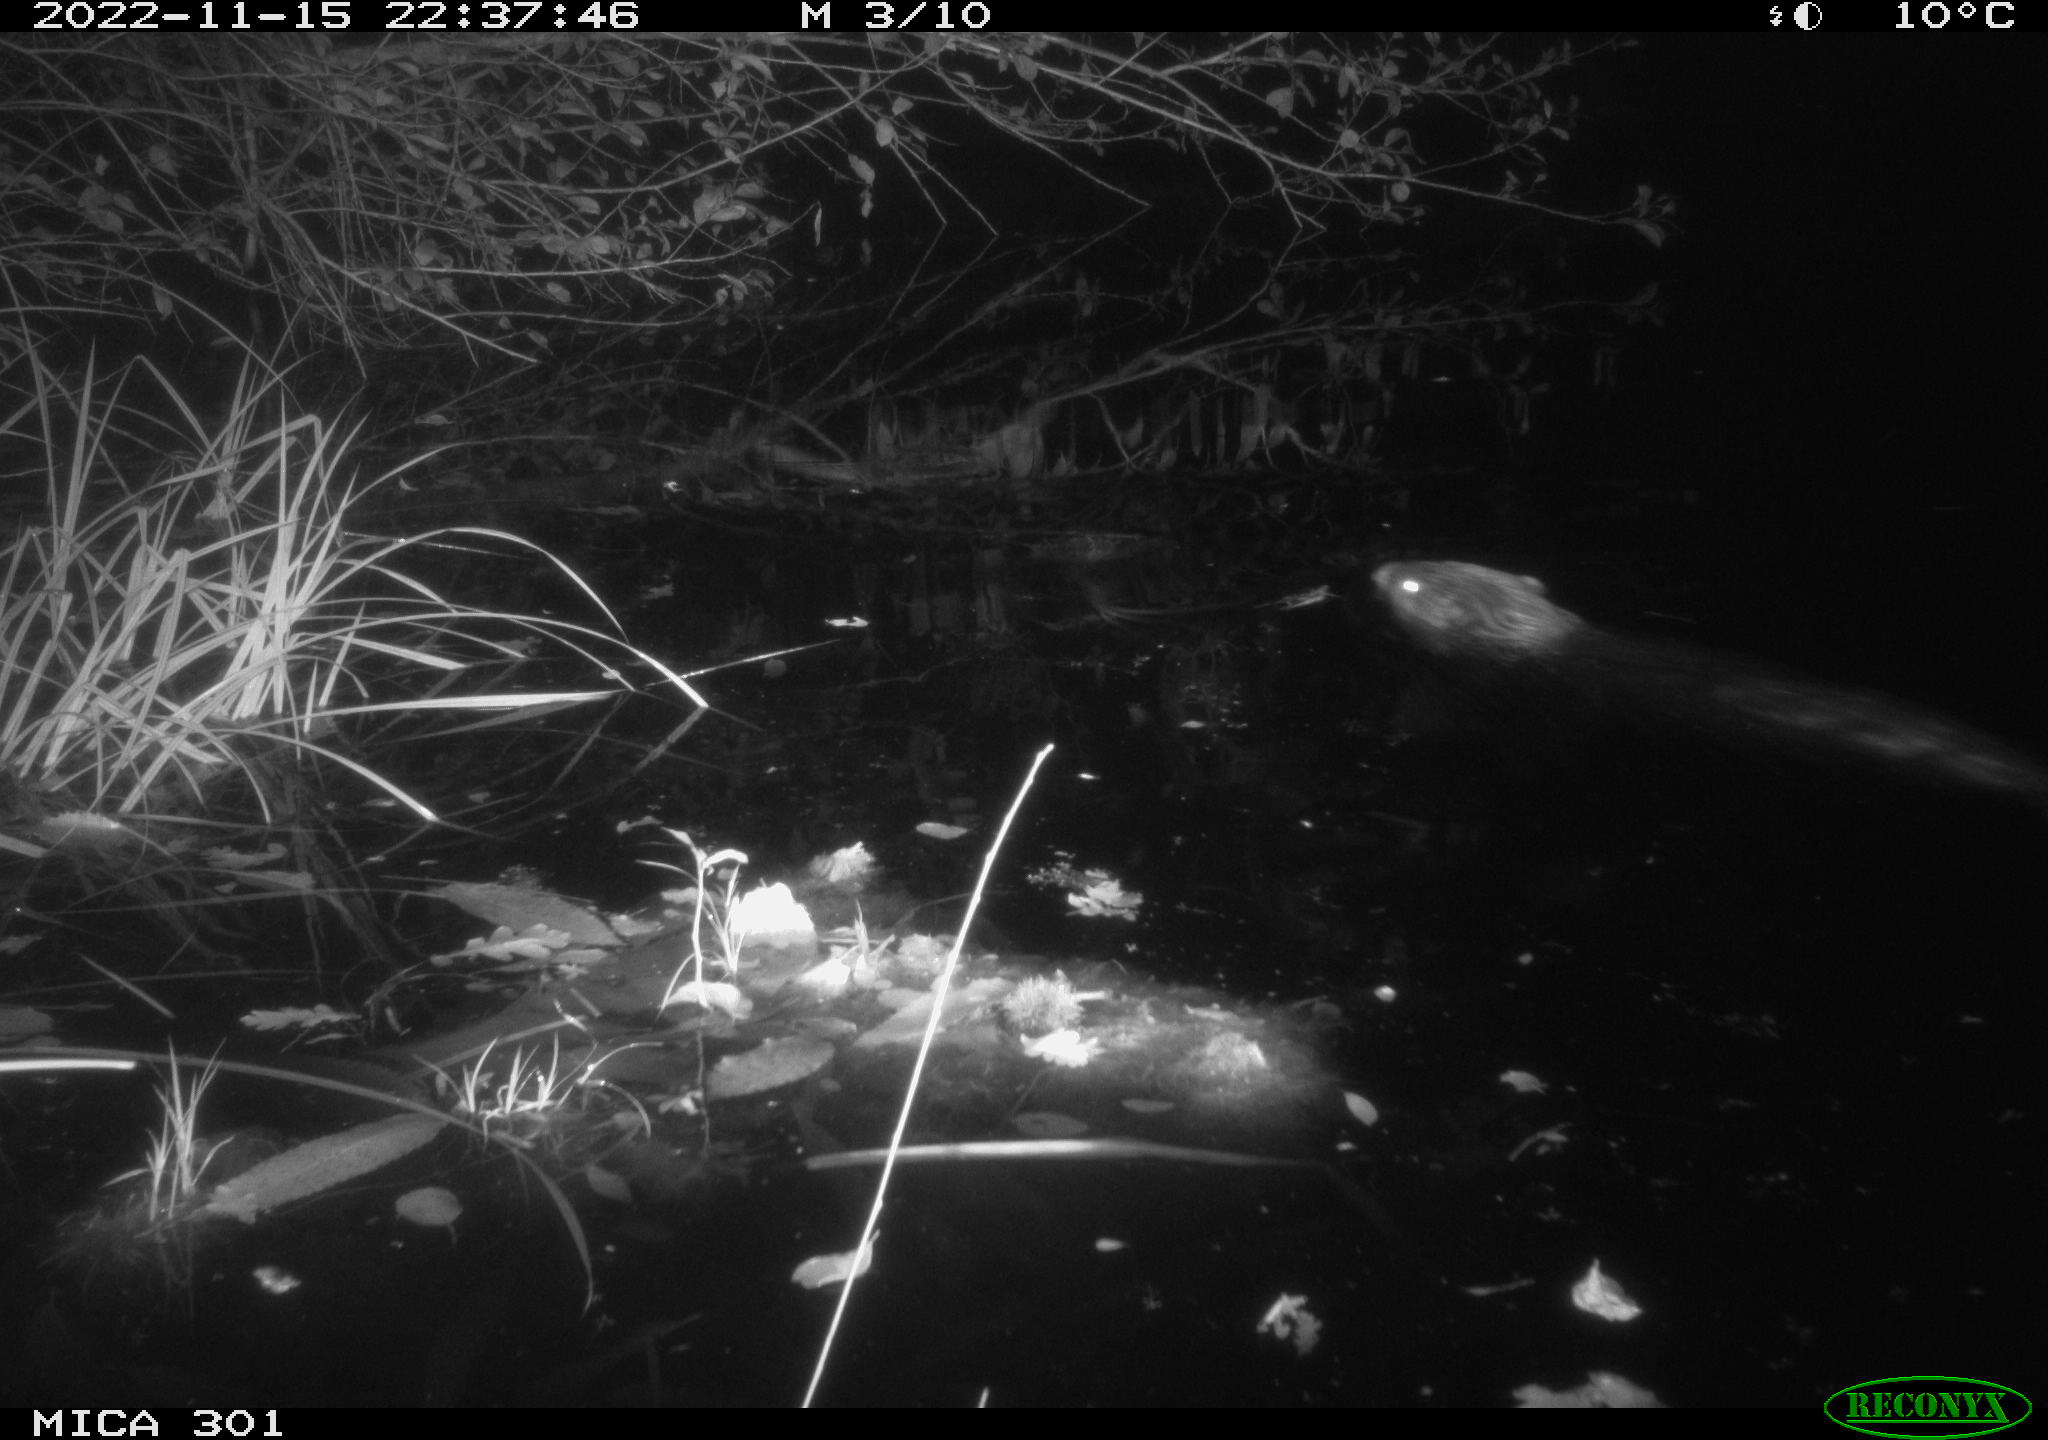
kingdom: Animalia
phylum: Chordata
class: Mammalia
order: Rodentia
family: Castoridae
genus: Castor
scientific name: Castor fiber
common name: Eurasian beaver
